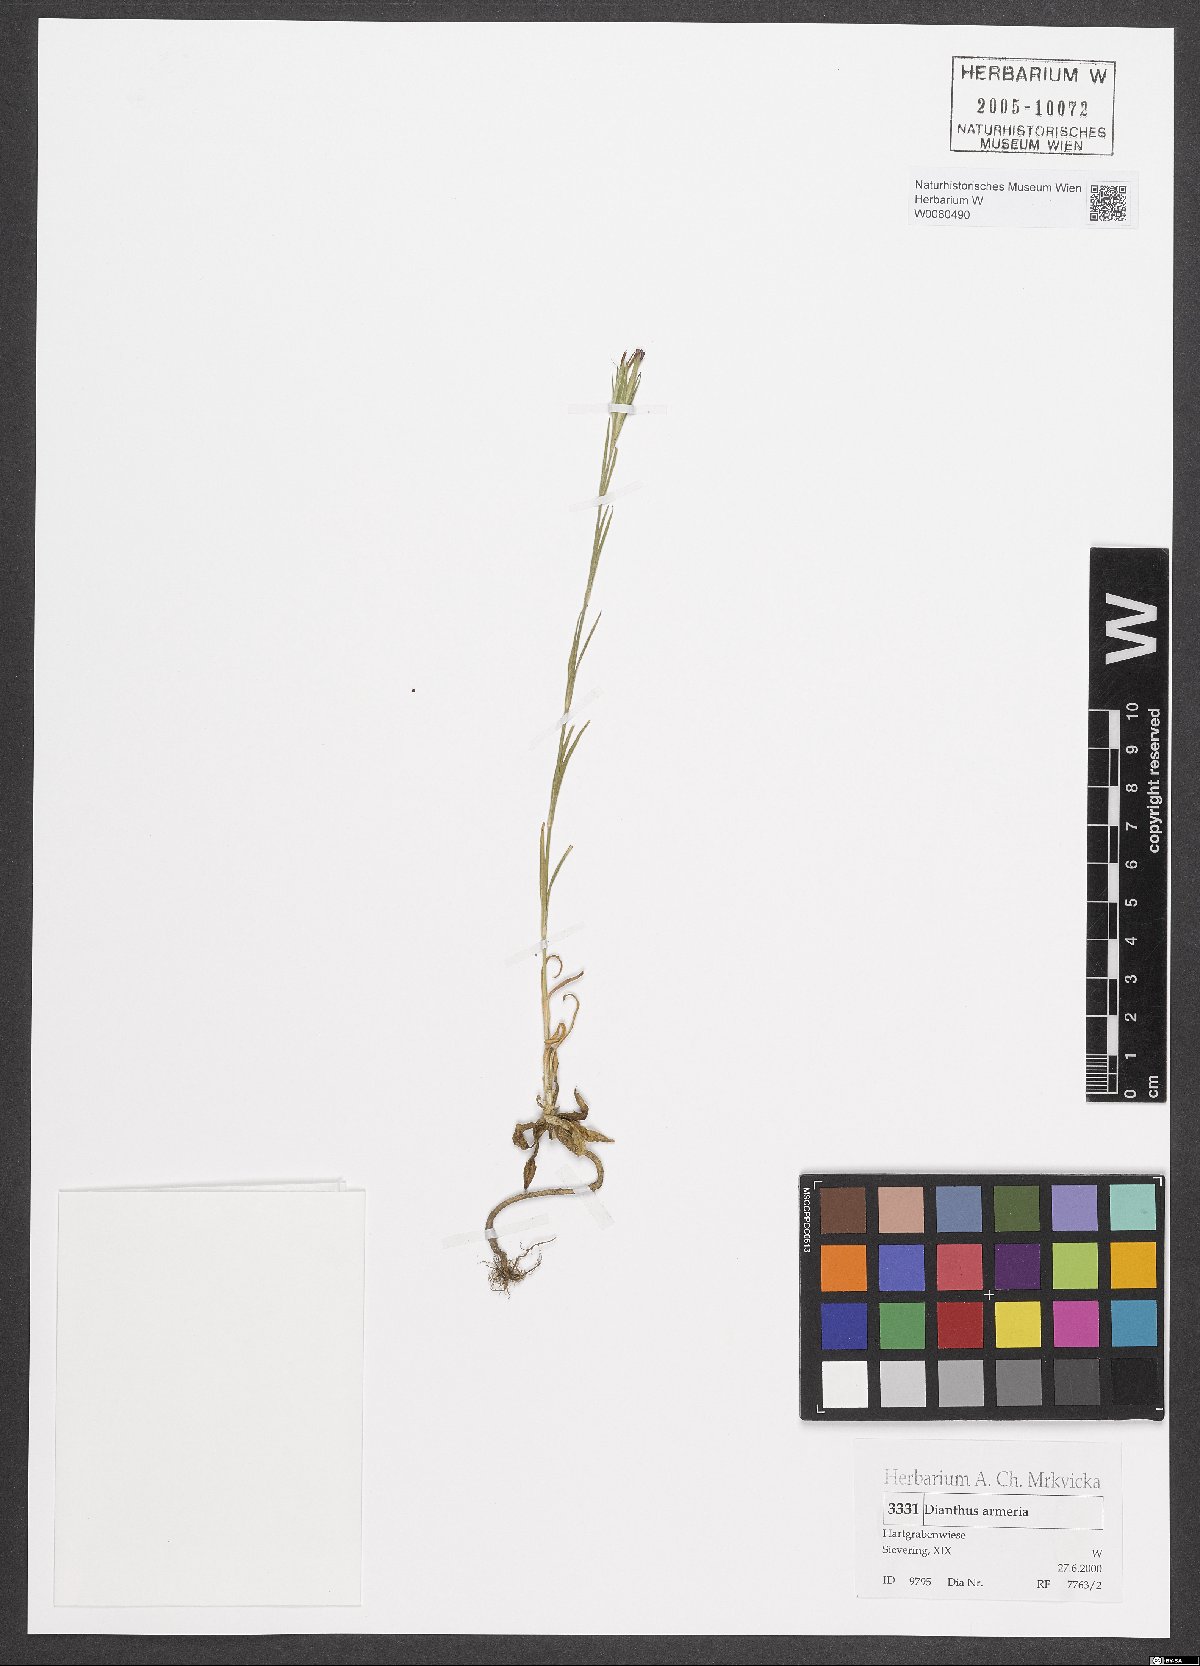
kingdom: Plantae
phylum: Tracheophyta
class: Magnoliopsida
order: Caryophyllales
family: Caryophyllaceae
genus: Dianthus
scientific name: Dianthus armeria
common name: Deptford pink
